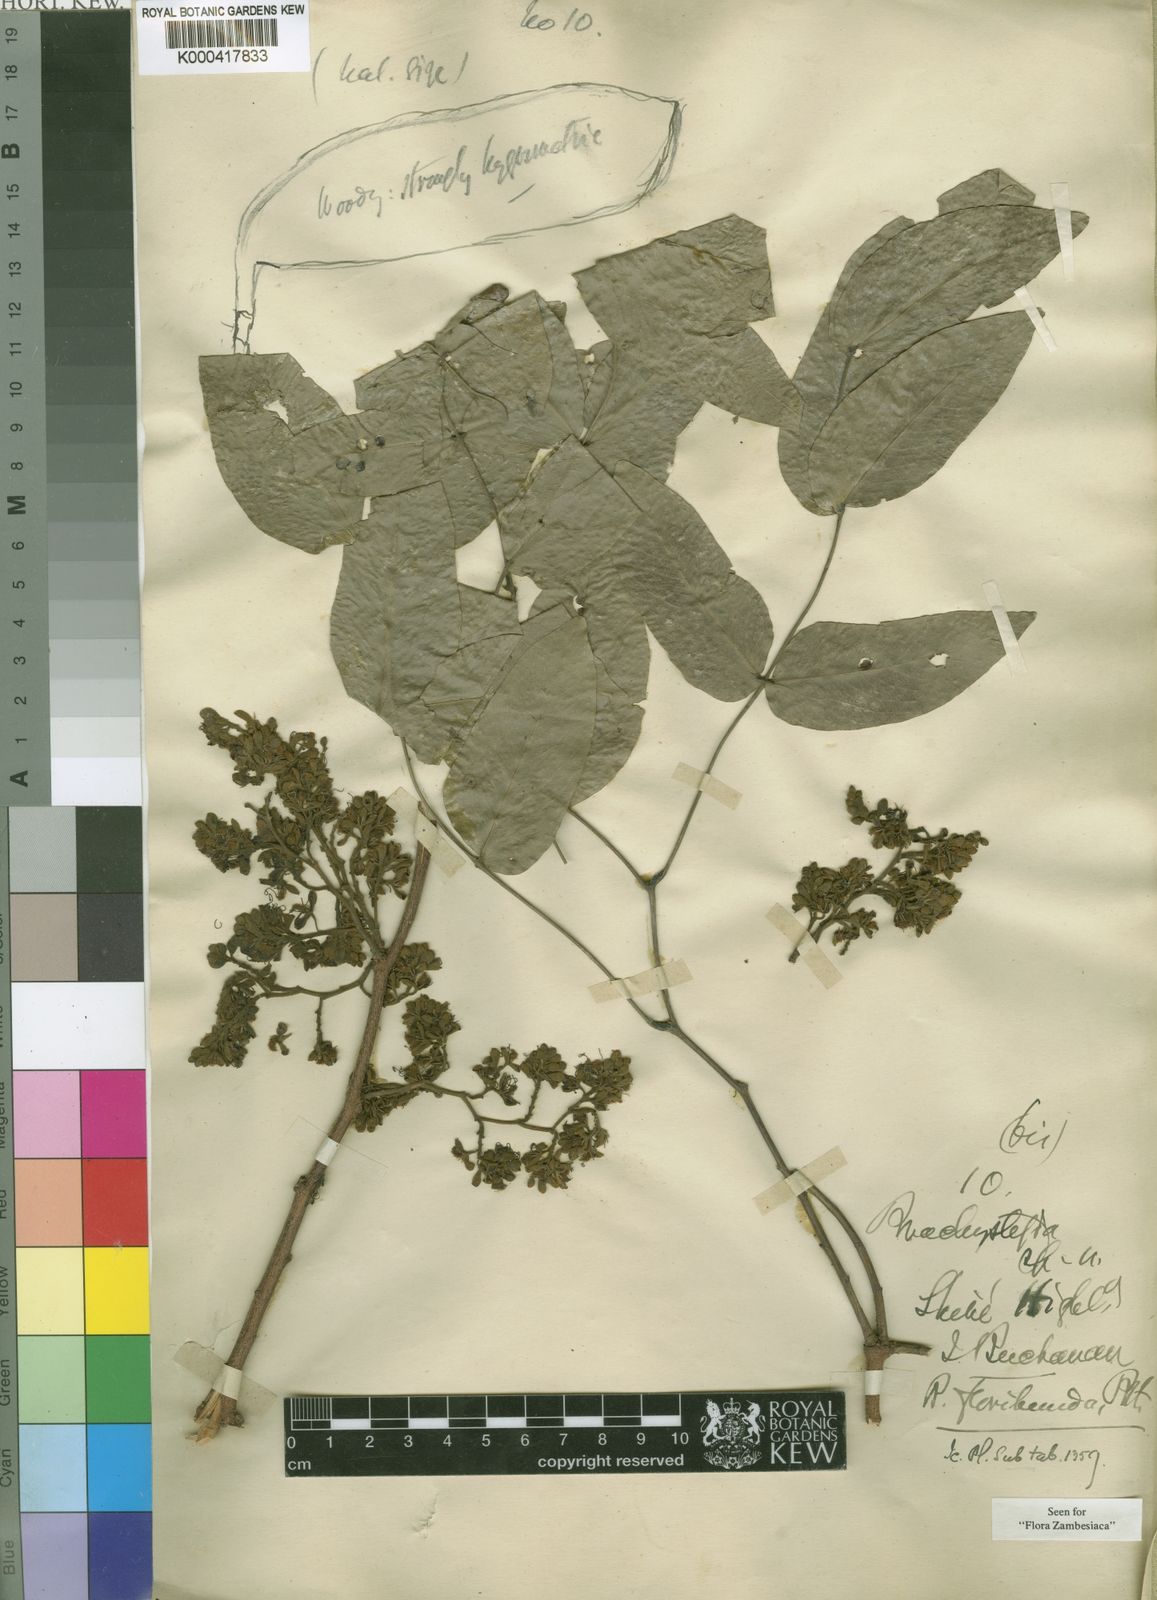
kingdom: Plantae
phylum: Tracheophyta
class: Magnoliopsida
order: Fabales
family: Fabaceae
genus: Brachystegia
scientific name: Brachystegia floribunda
